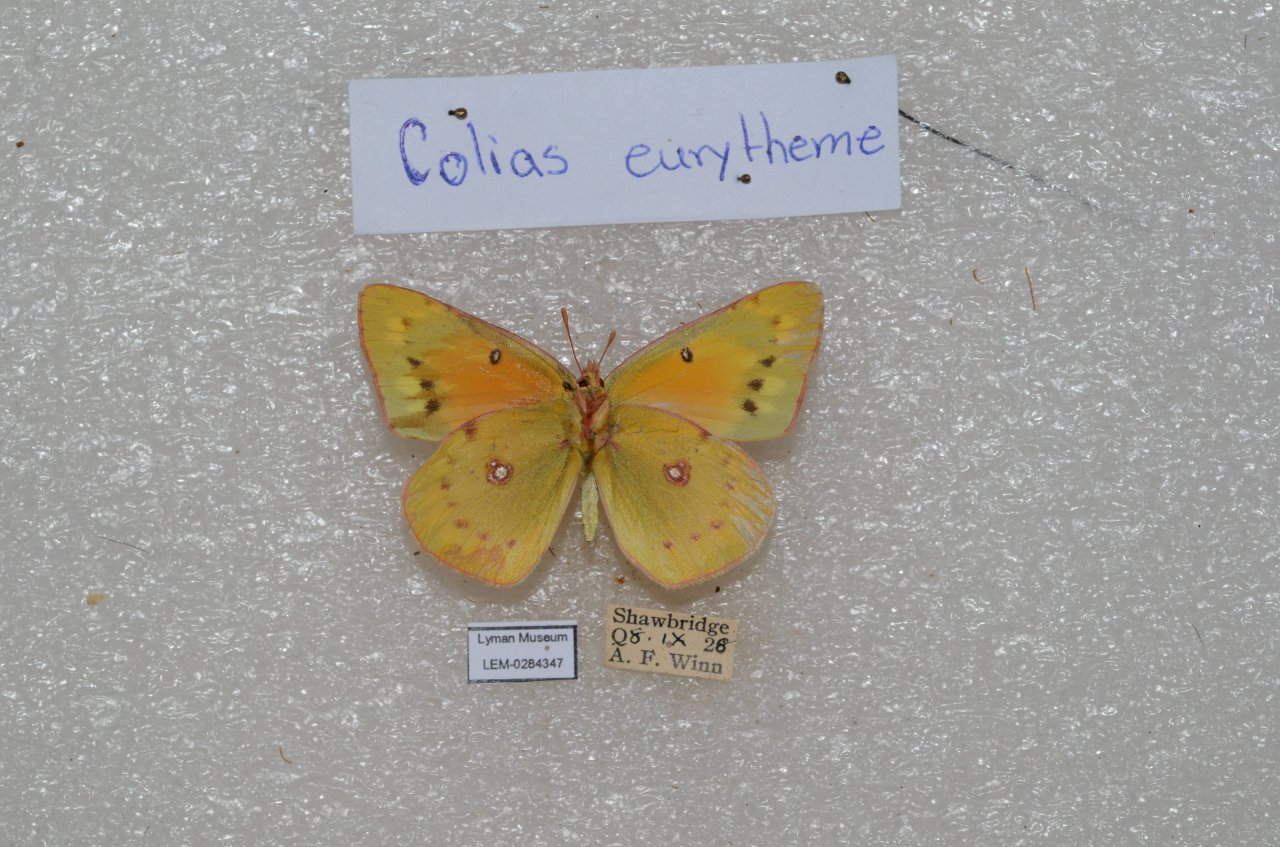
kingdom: Animalia
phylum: Arthropoda
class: Insecta
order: Lepidoptera
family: Pieridae
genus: Colias
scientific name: Colias eurytheme
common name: Orange Sulphur
